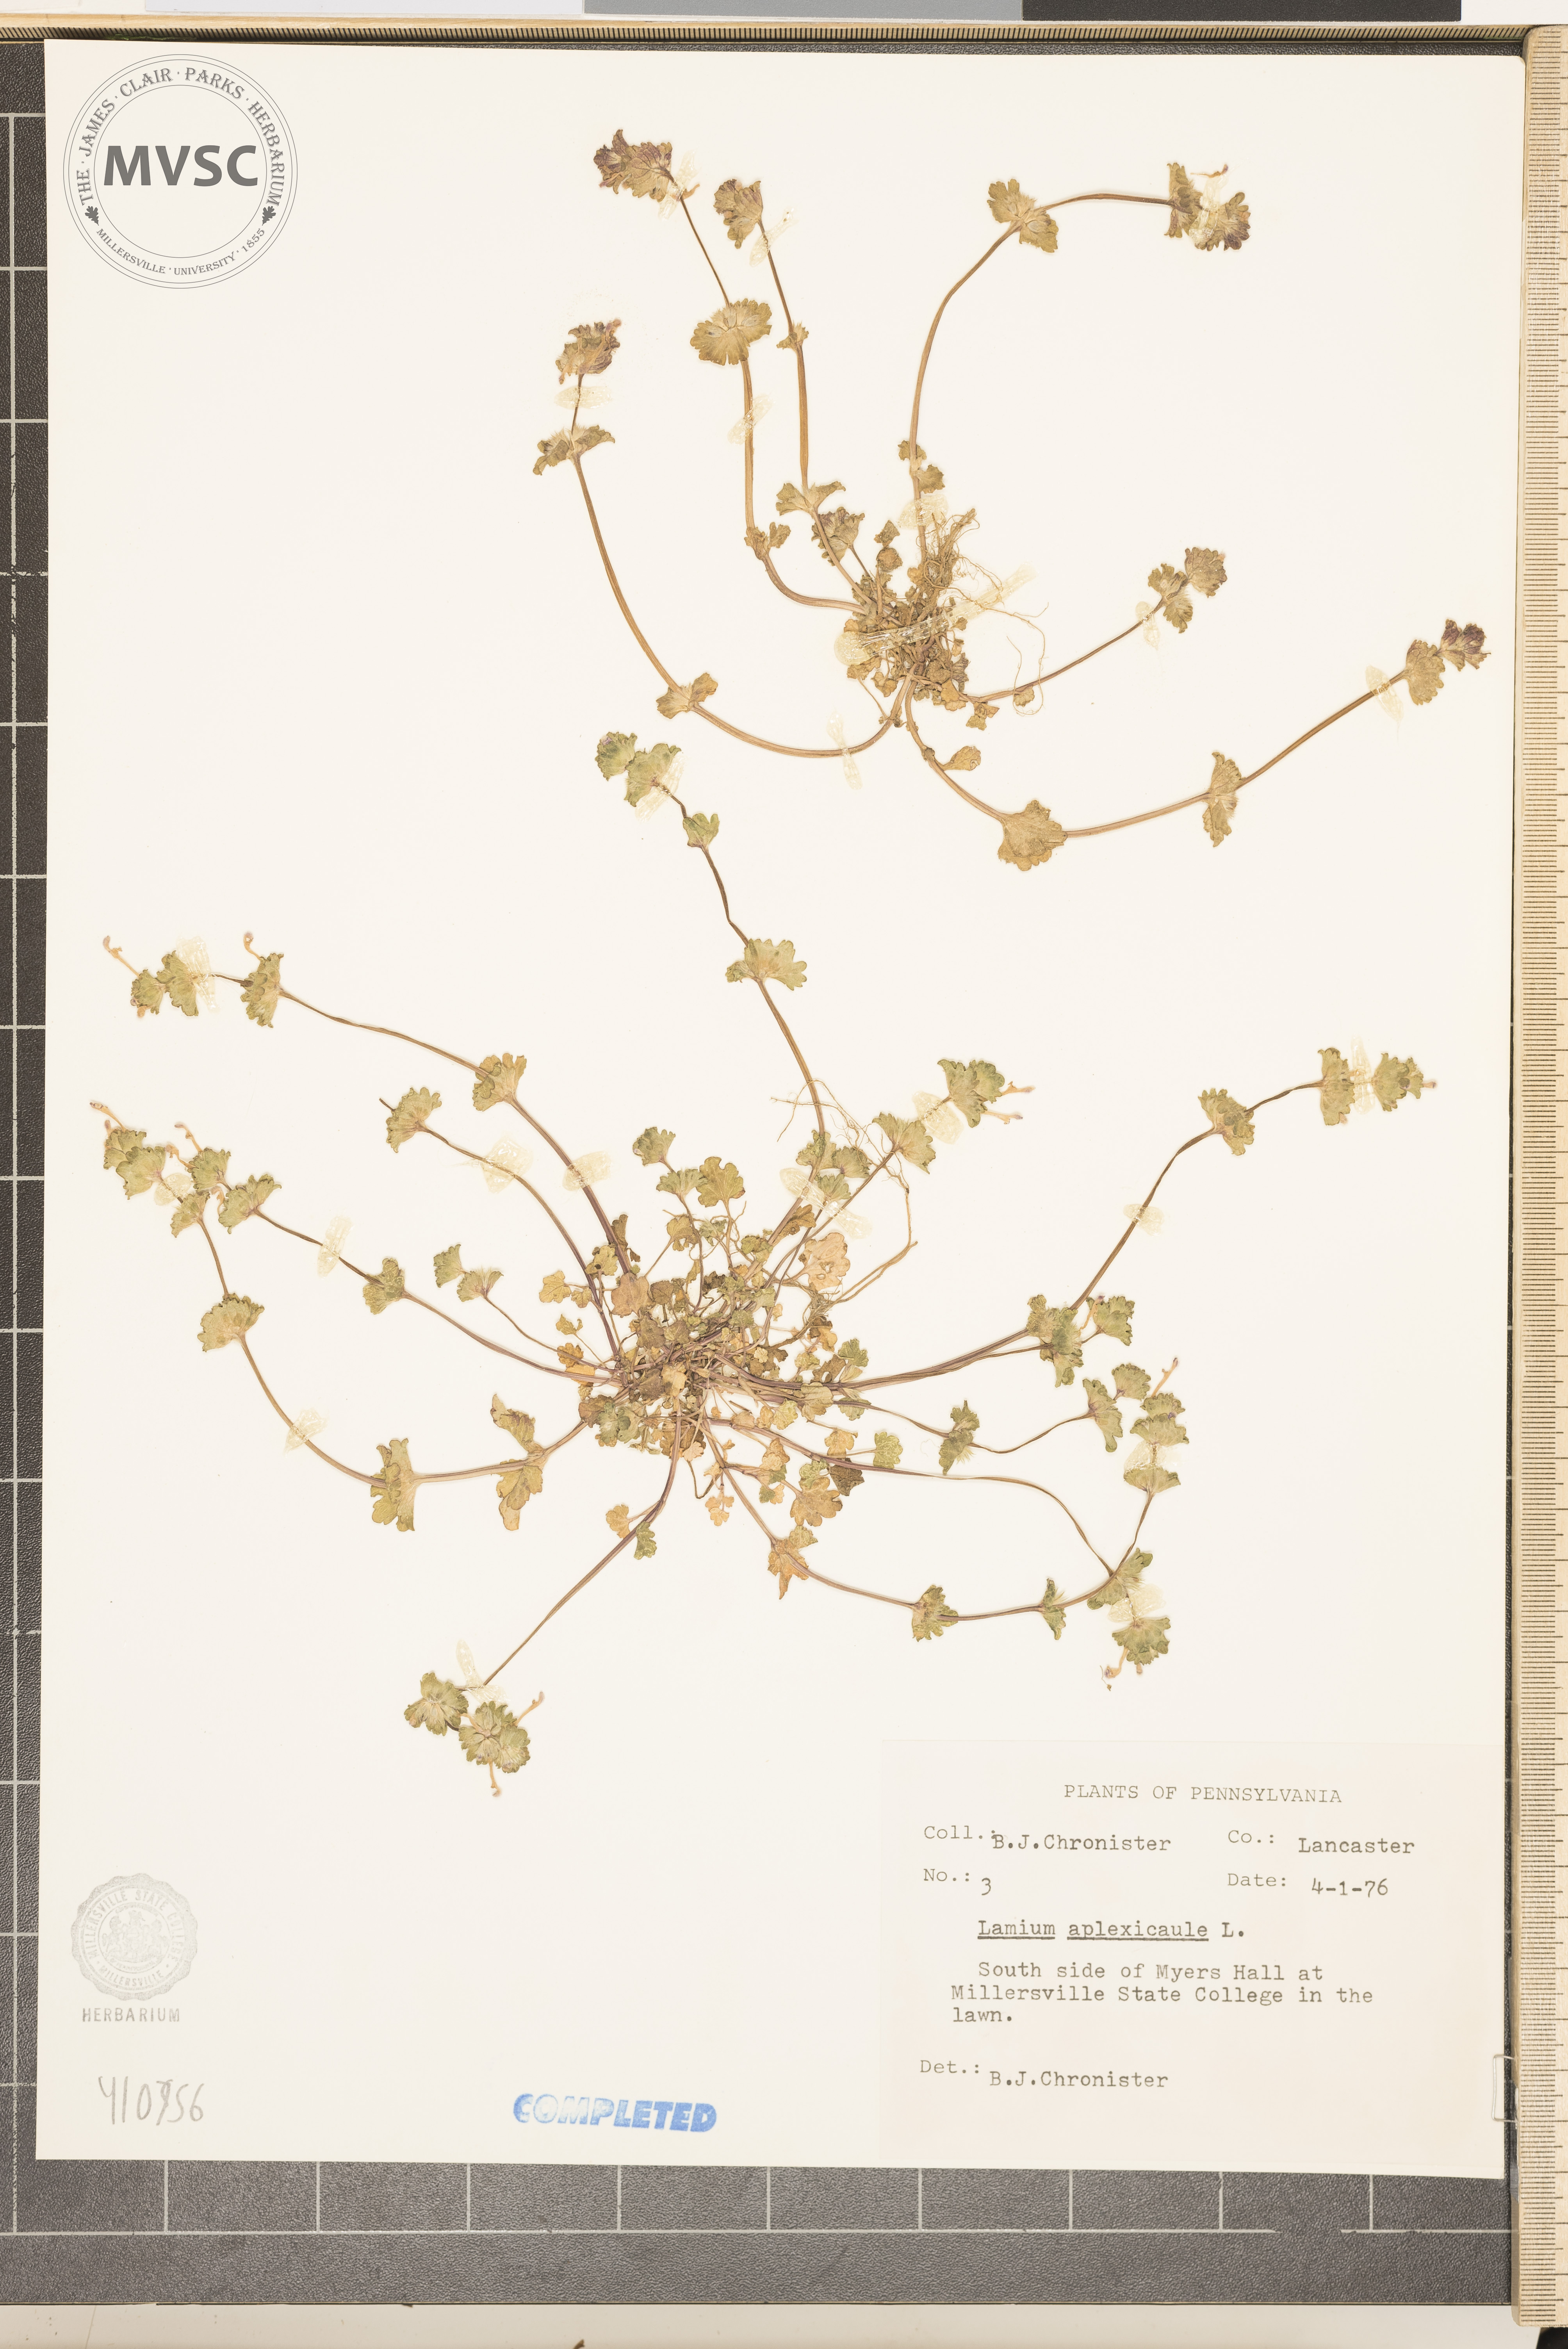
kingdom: Plantae
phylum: Tracheophyta
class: Magnoliopsida
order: Lamiales
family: Lamiaceae
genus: Lamium
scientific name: Lamium amplexicaule
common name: henbit
